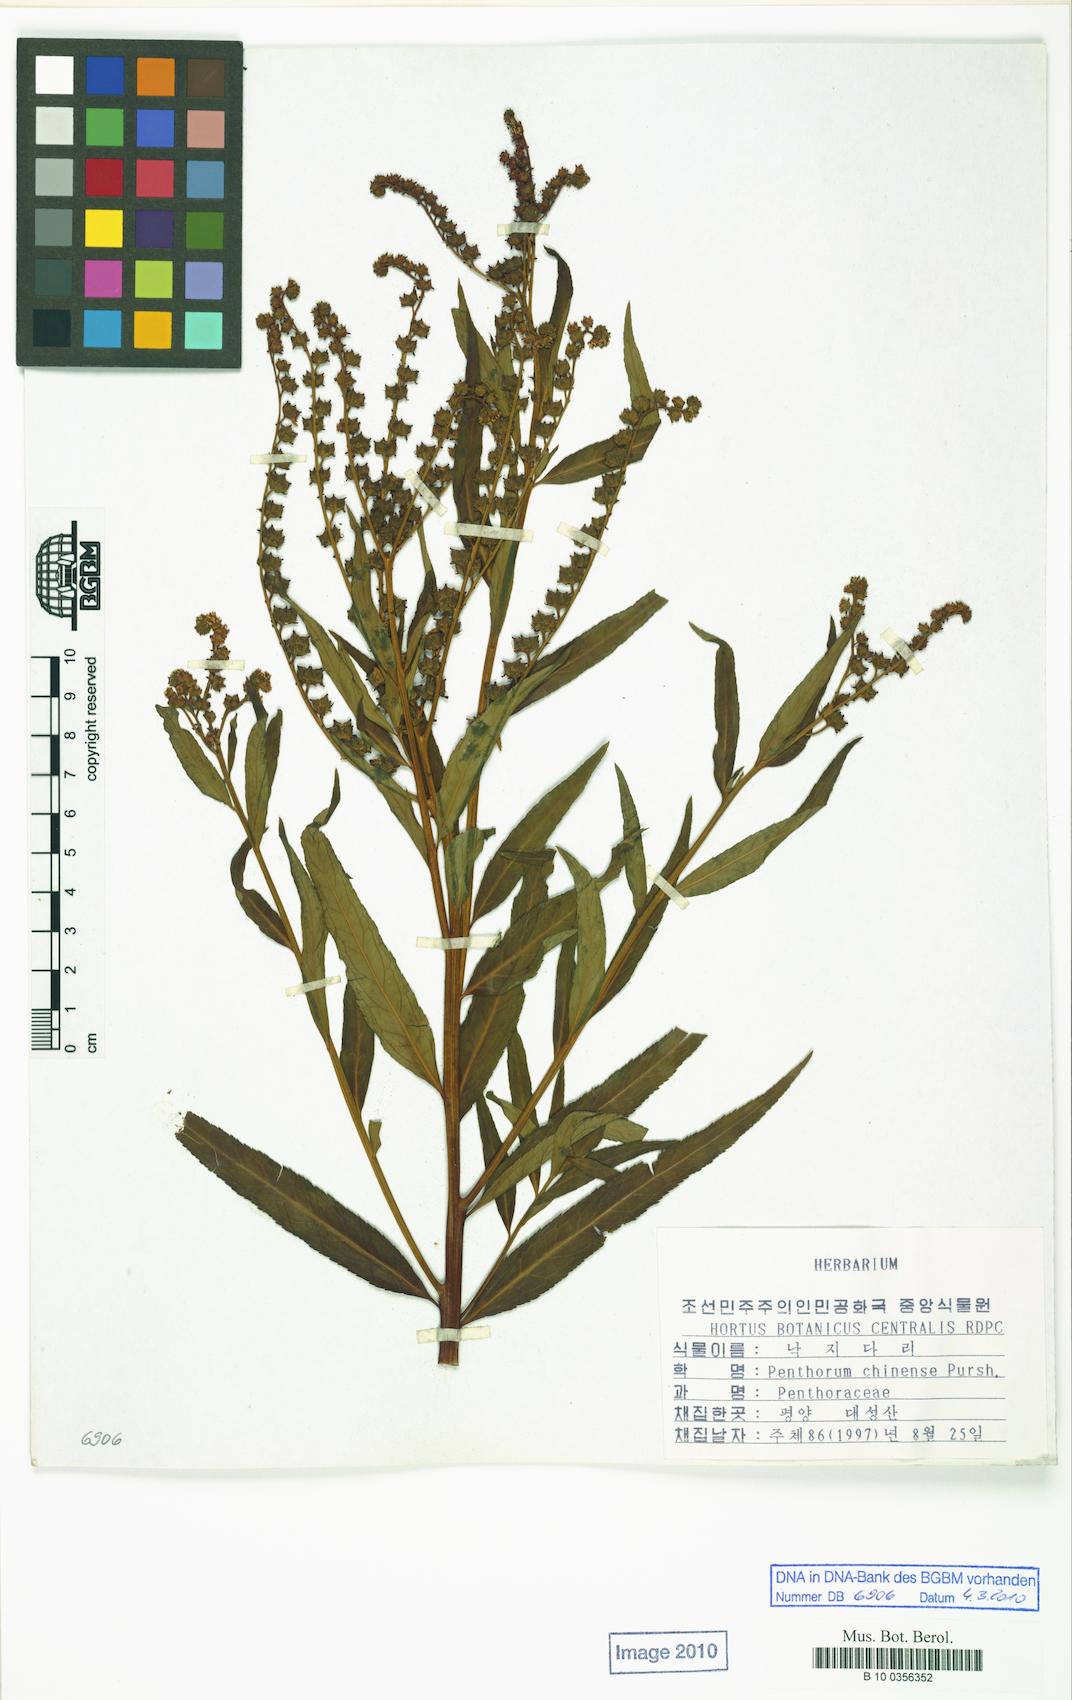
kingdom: Plantae
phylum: Tracheophyta
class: Magnoliopsida
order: Saxifragales
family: Penthoraceae
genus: Penthorum
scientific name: Penthorum chinense
